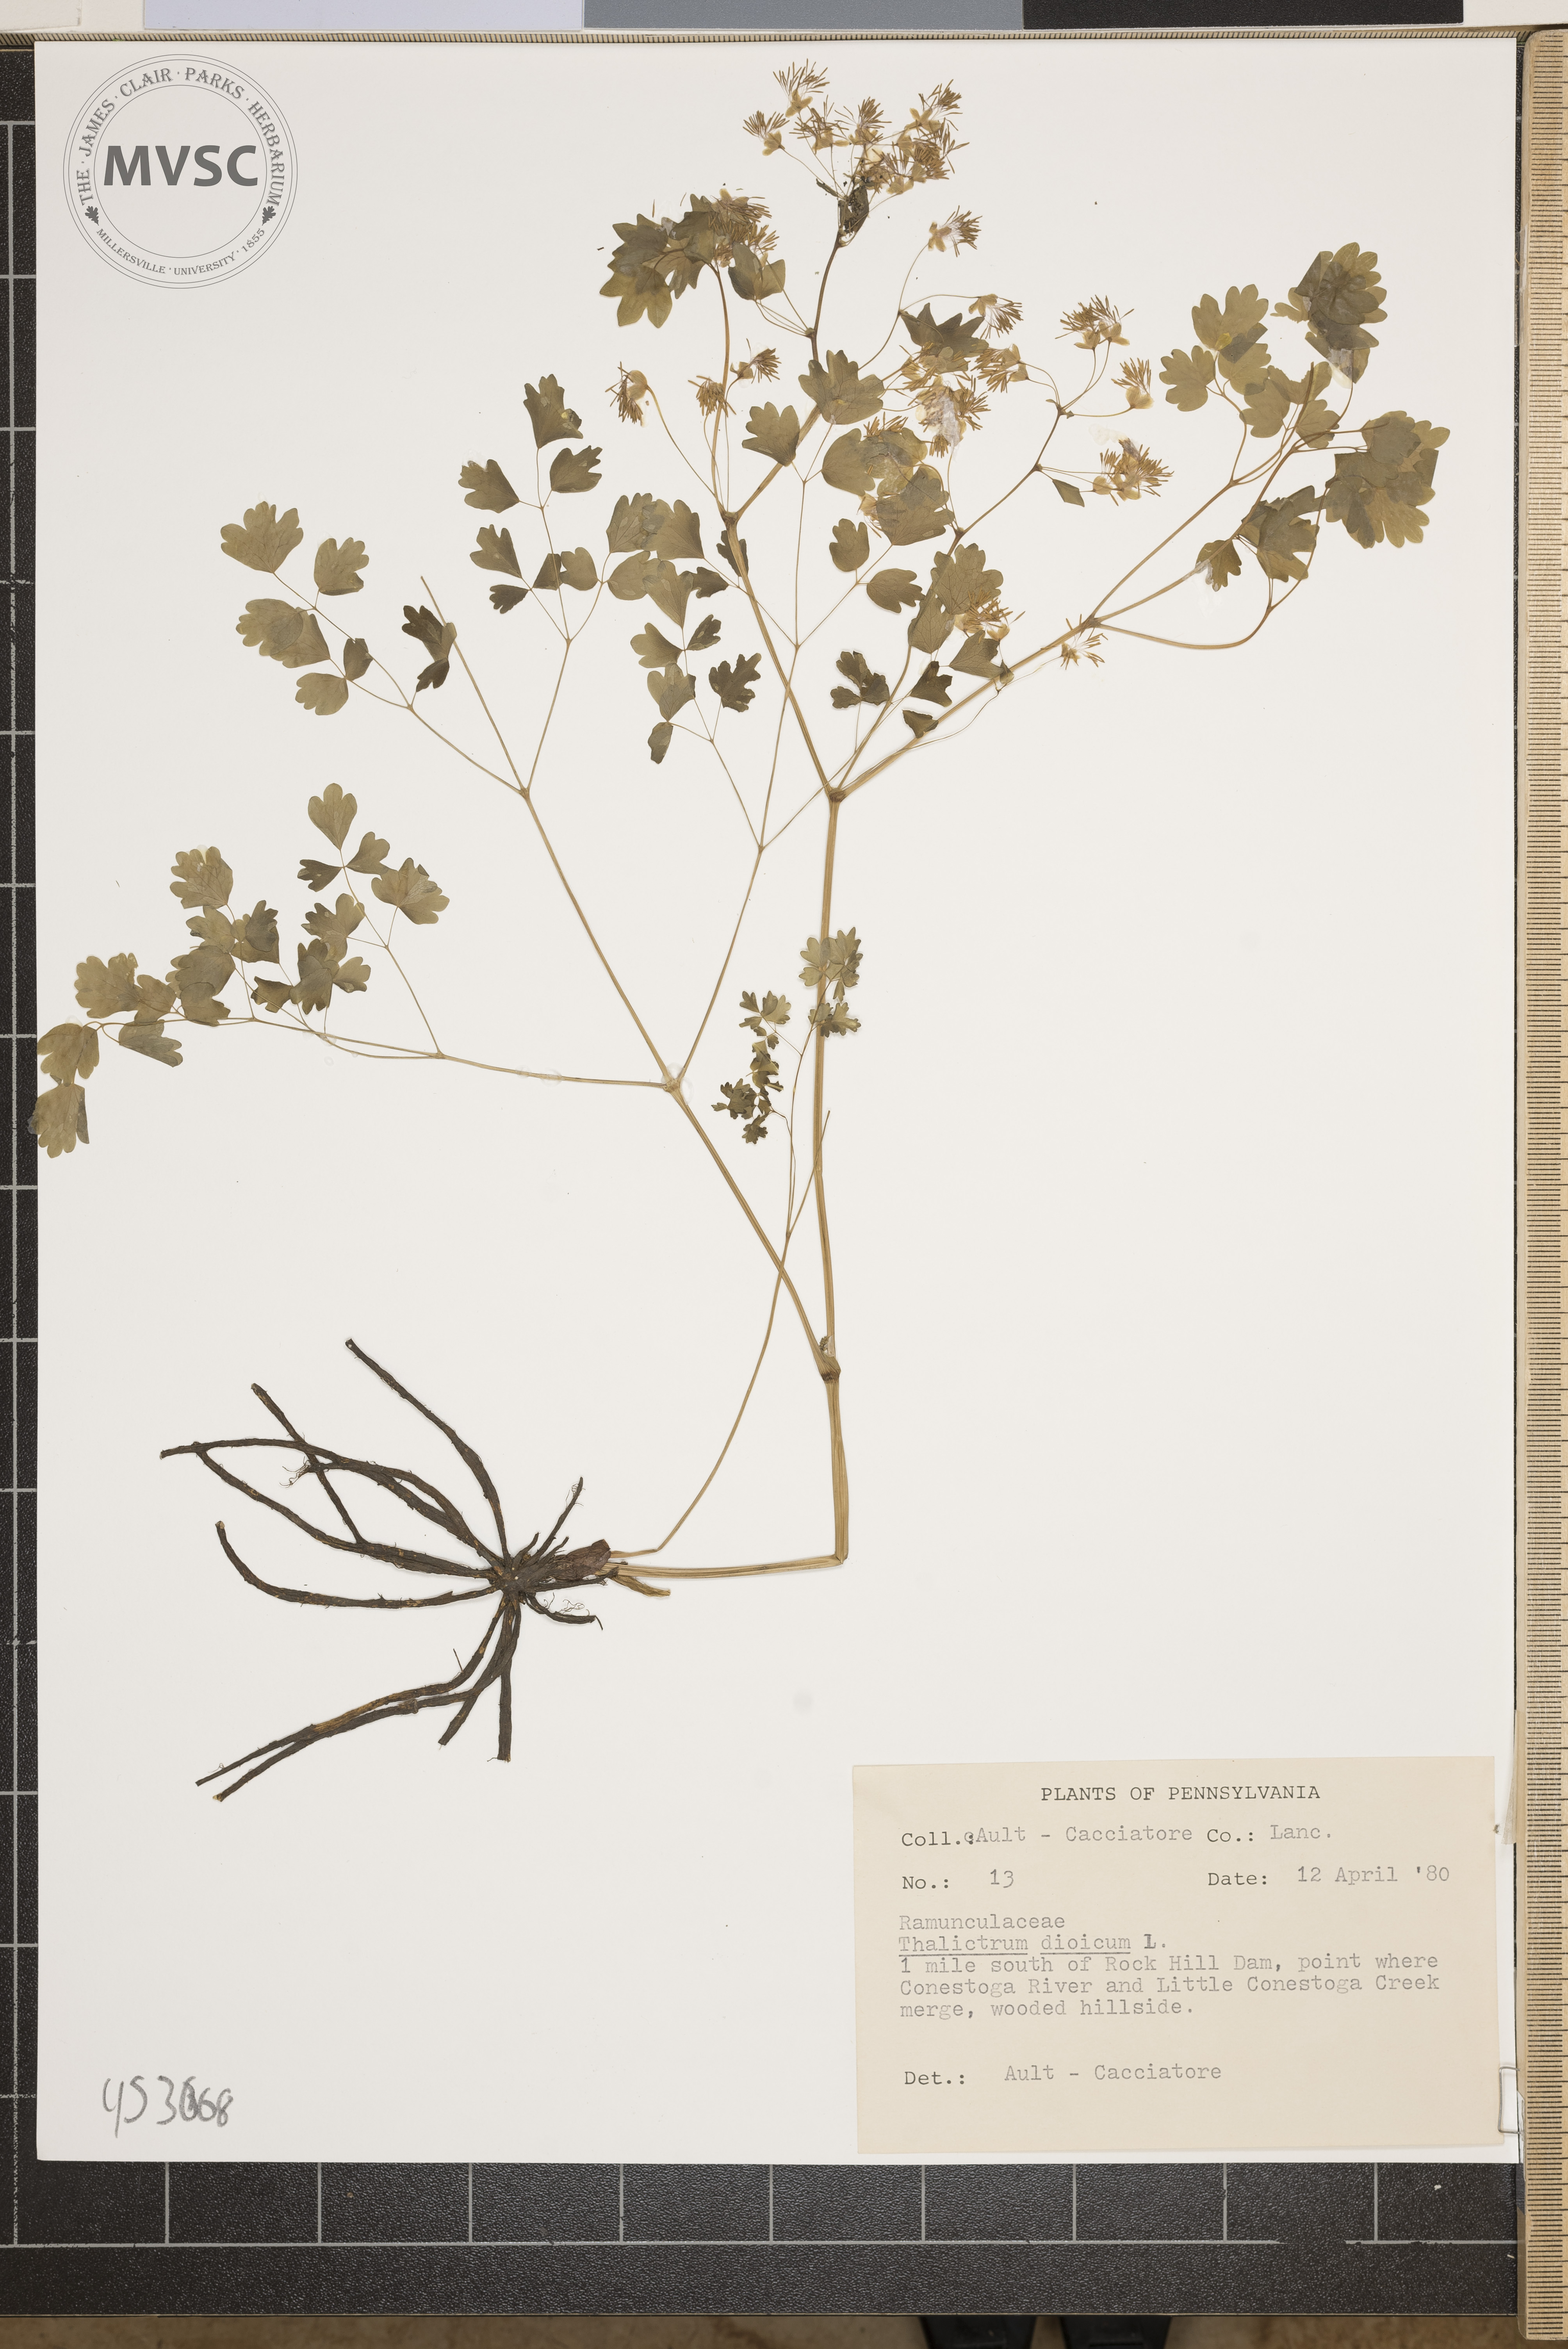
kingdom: Plantae
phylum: Tracheophyta
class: Magnoliopsida
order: Ranunculales
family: Ranunculaceae
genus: Thalictrum
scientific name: Thalictrum dioicum
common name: Early meadow-rue
